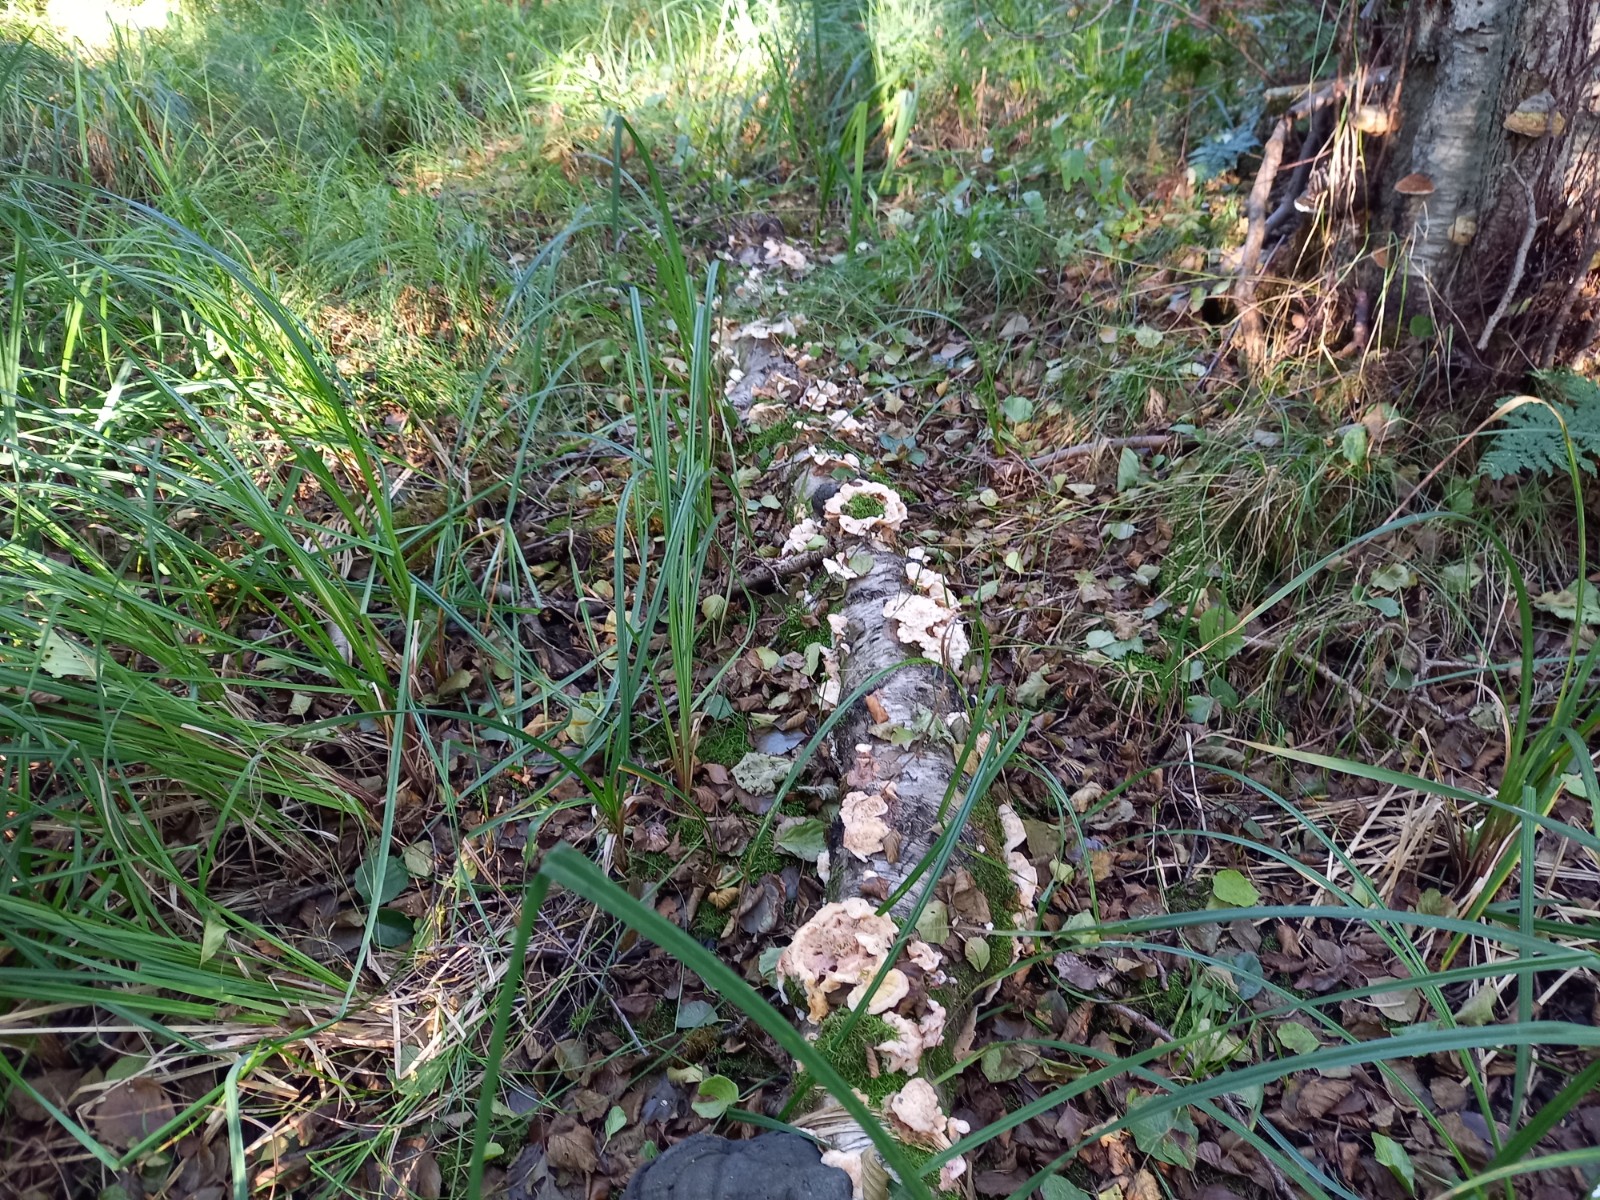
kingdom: Fungi
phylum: Basidiomycota
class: Agaricomycetes
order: Polyporales
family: Meruliaceae
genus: Phlebia
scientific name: Phlebia tremellosa
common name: bævrende åresvamp
